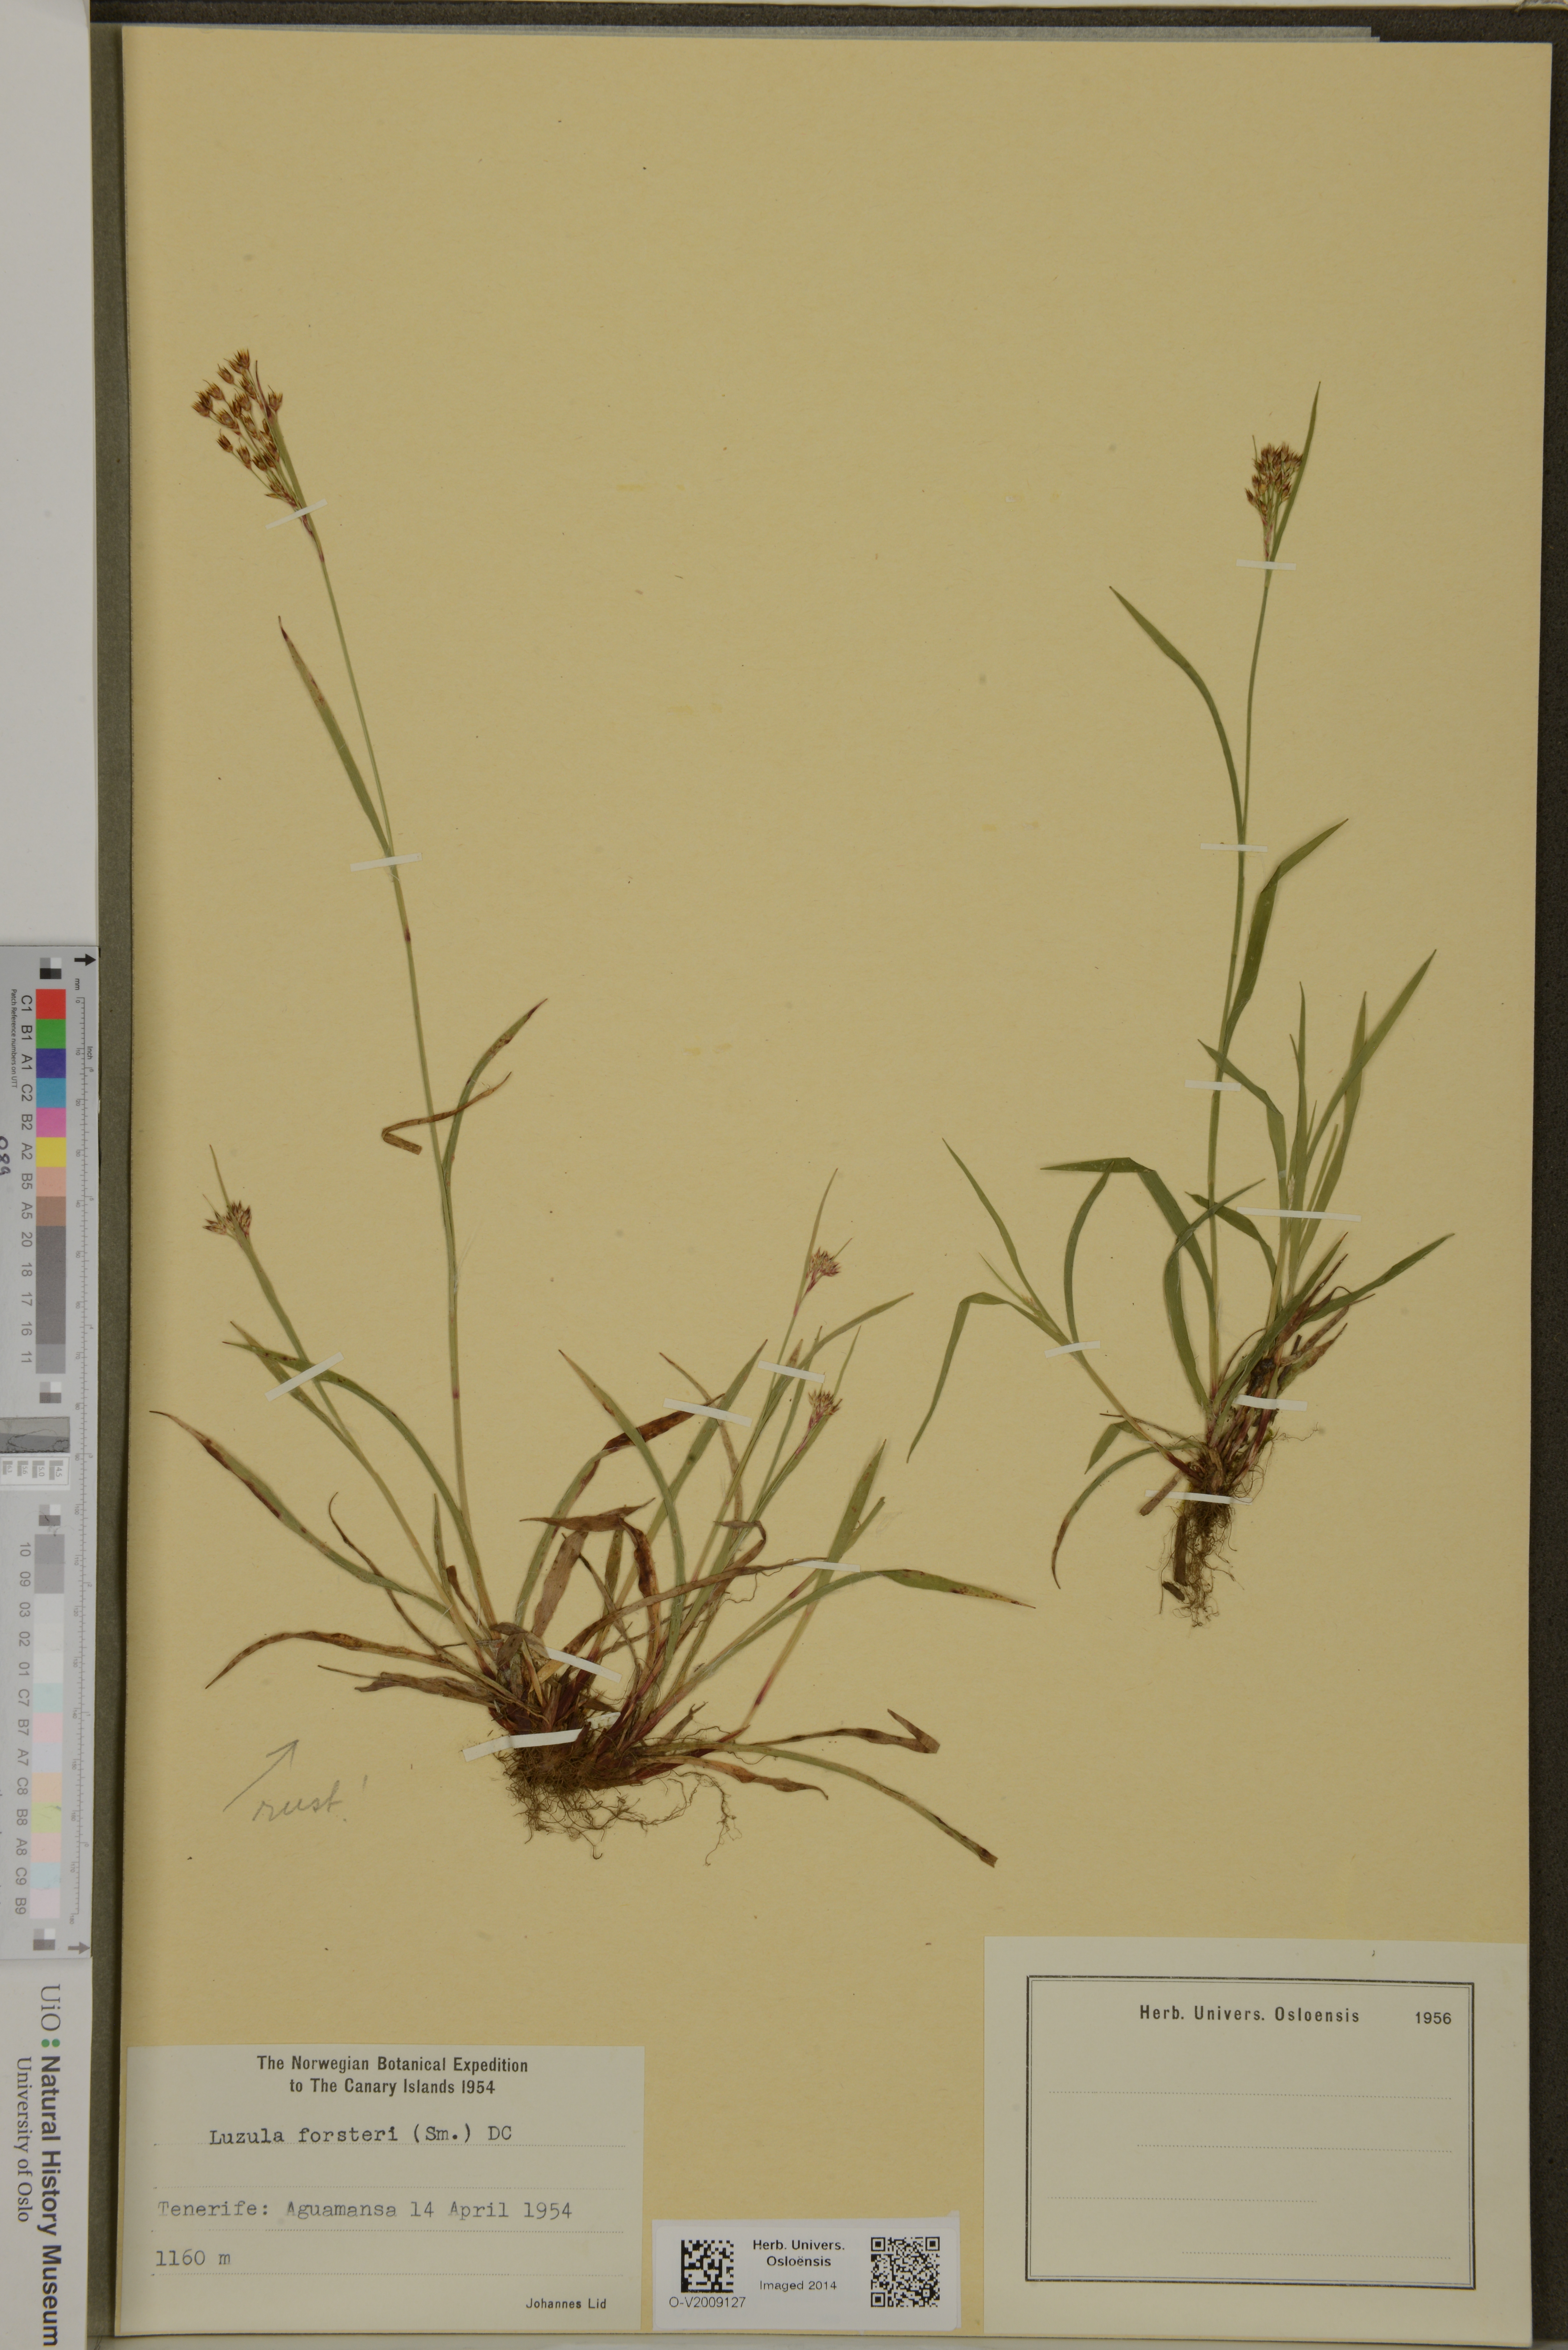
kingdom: Plantae
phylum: Tracheophyta
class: Liliopsida
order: Poales
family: Juncaceae
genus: Luzula
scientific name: Luzula forsteri
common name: Southern wood-rush
